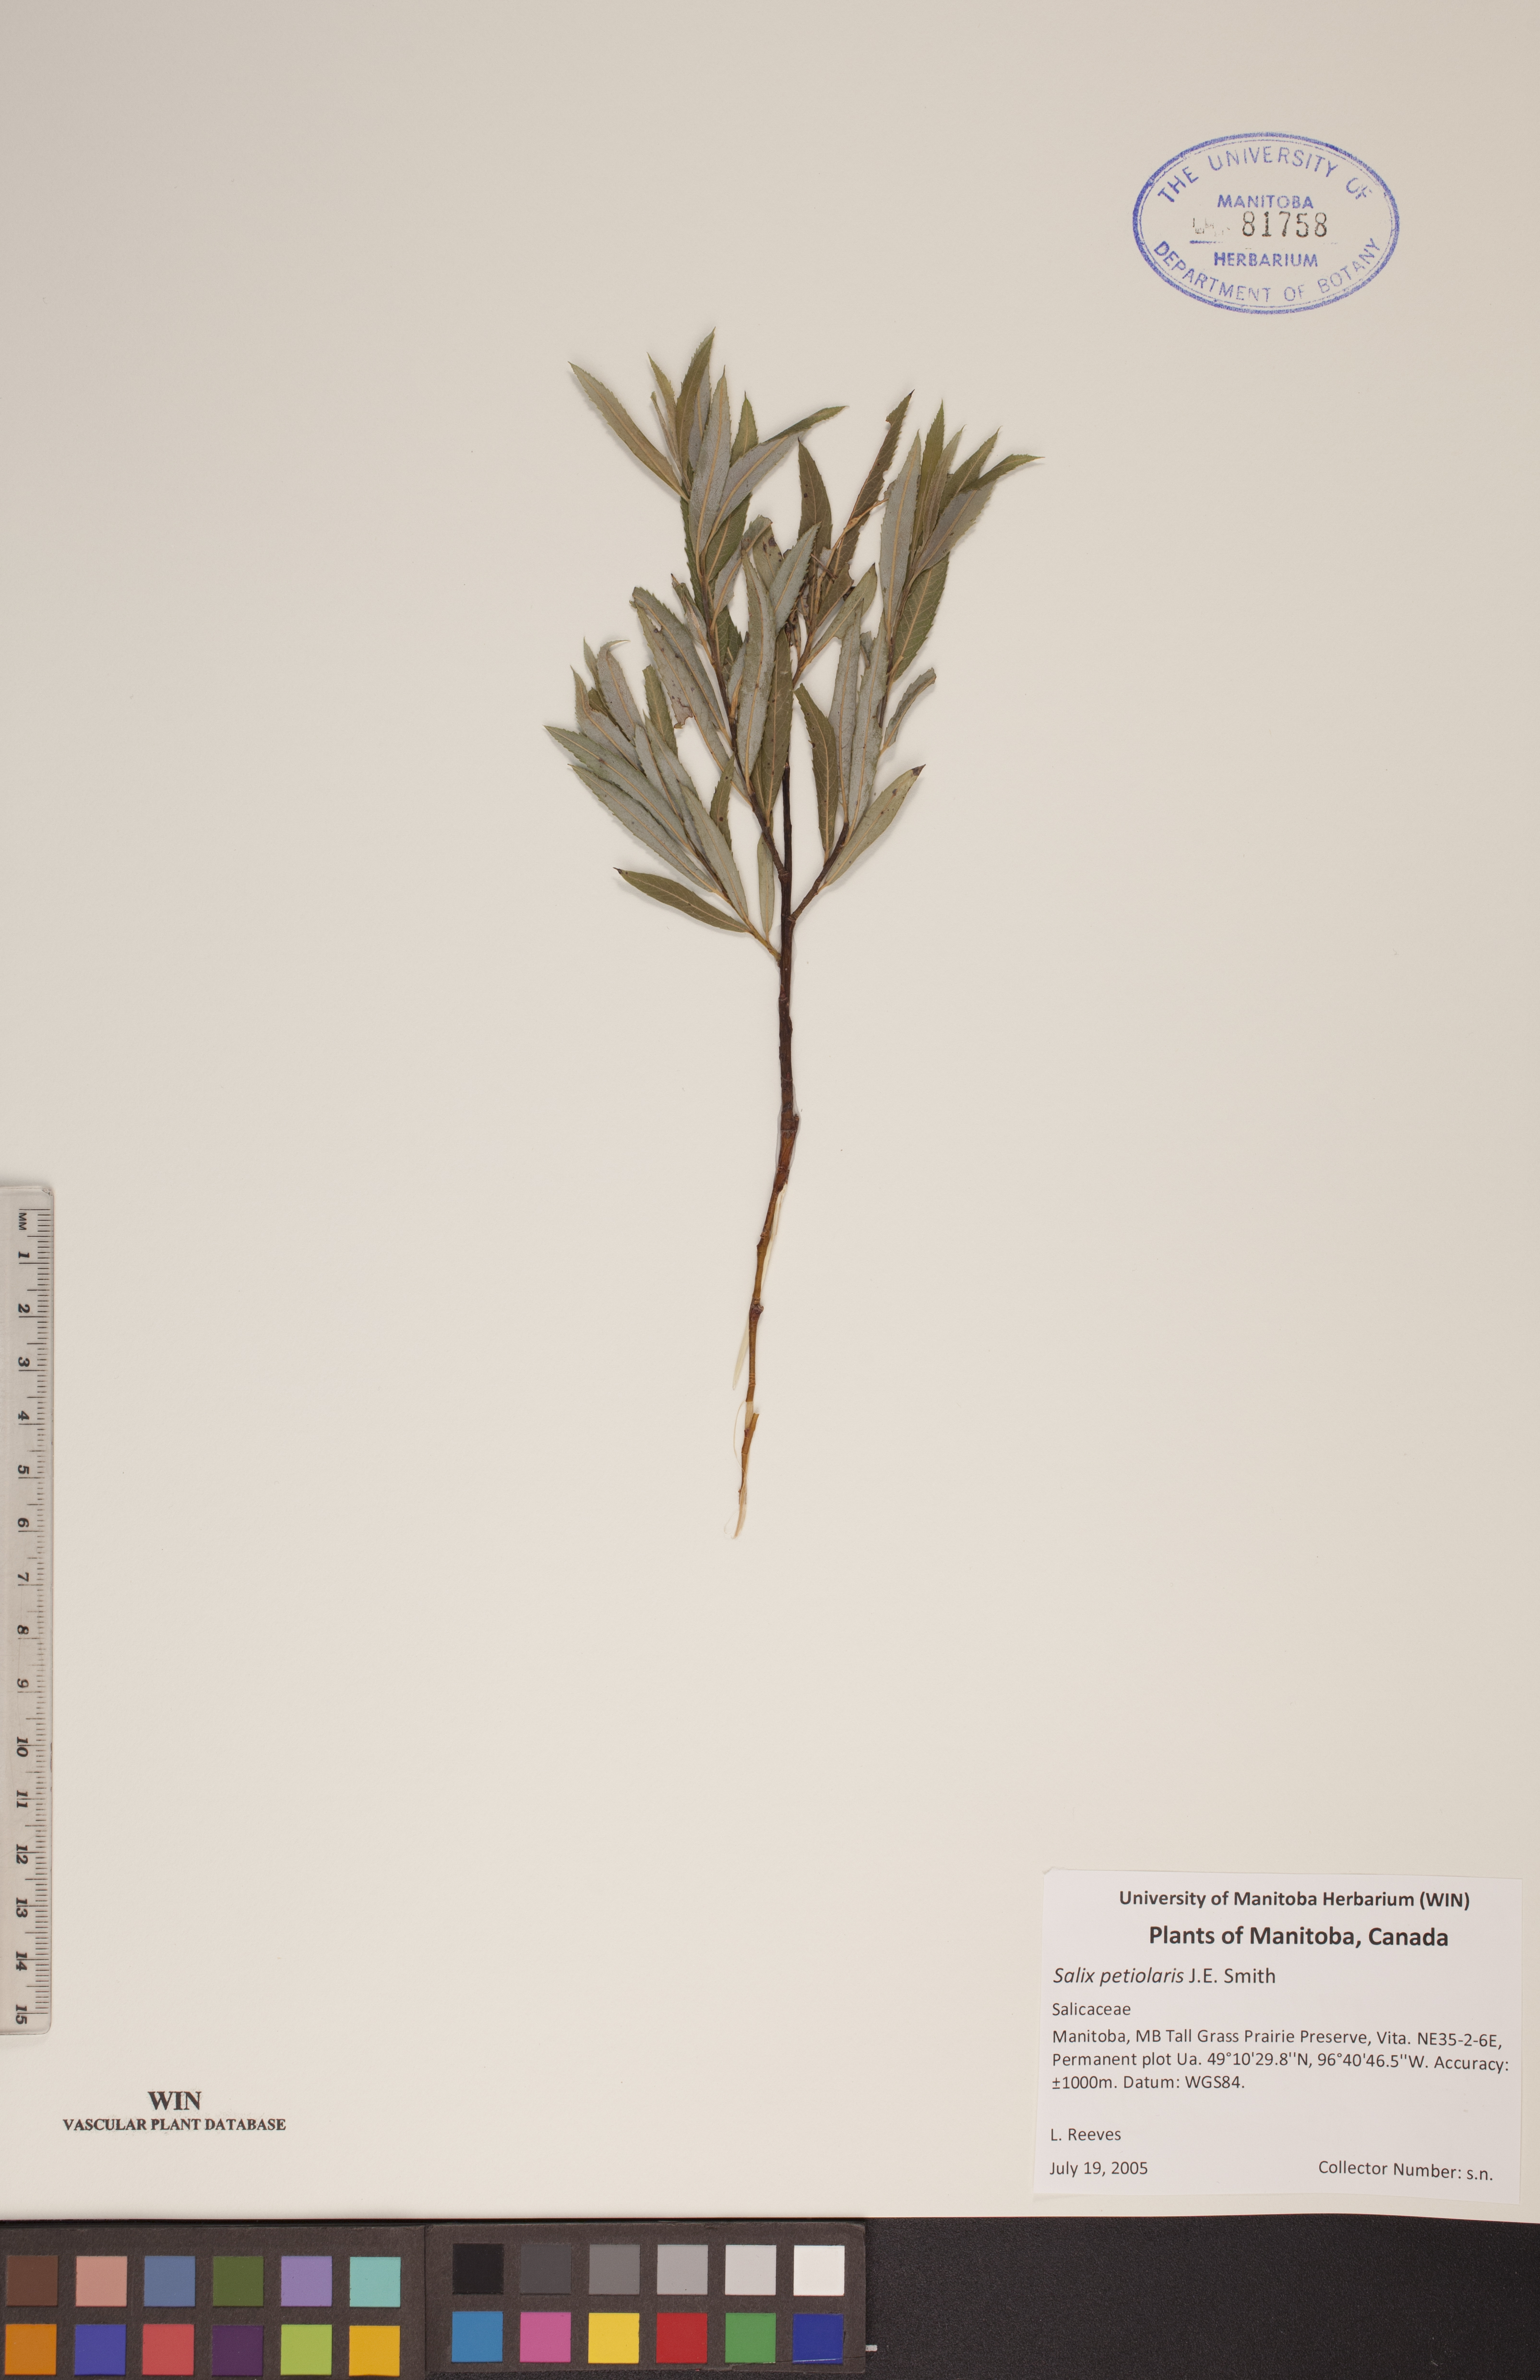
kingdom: Plantae
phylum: Tracheophyta
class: Magnoliopsida
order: Malpighiales
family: Salicaceae
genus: Salix
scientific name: Salix petiolaris
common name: Slender willow
